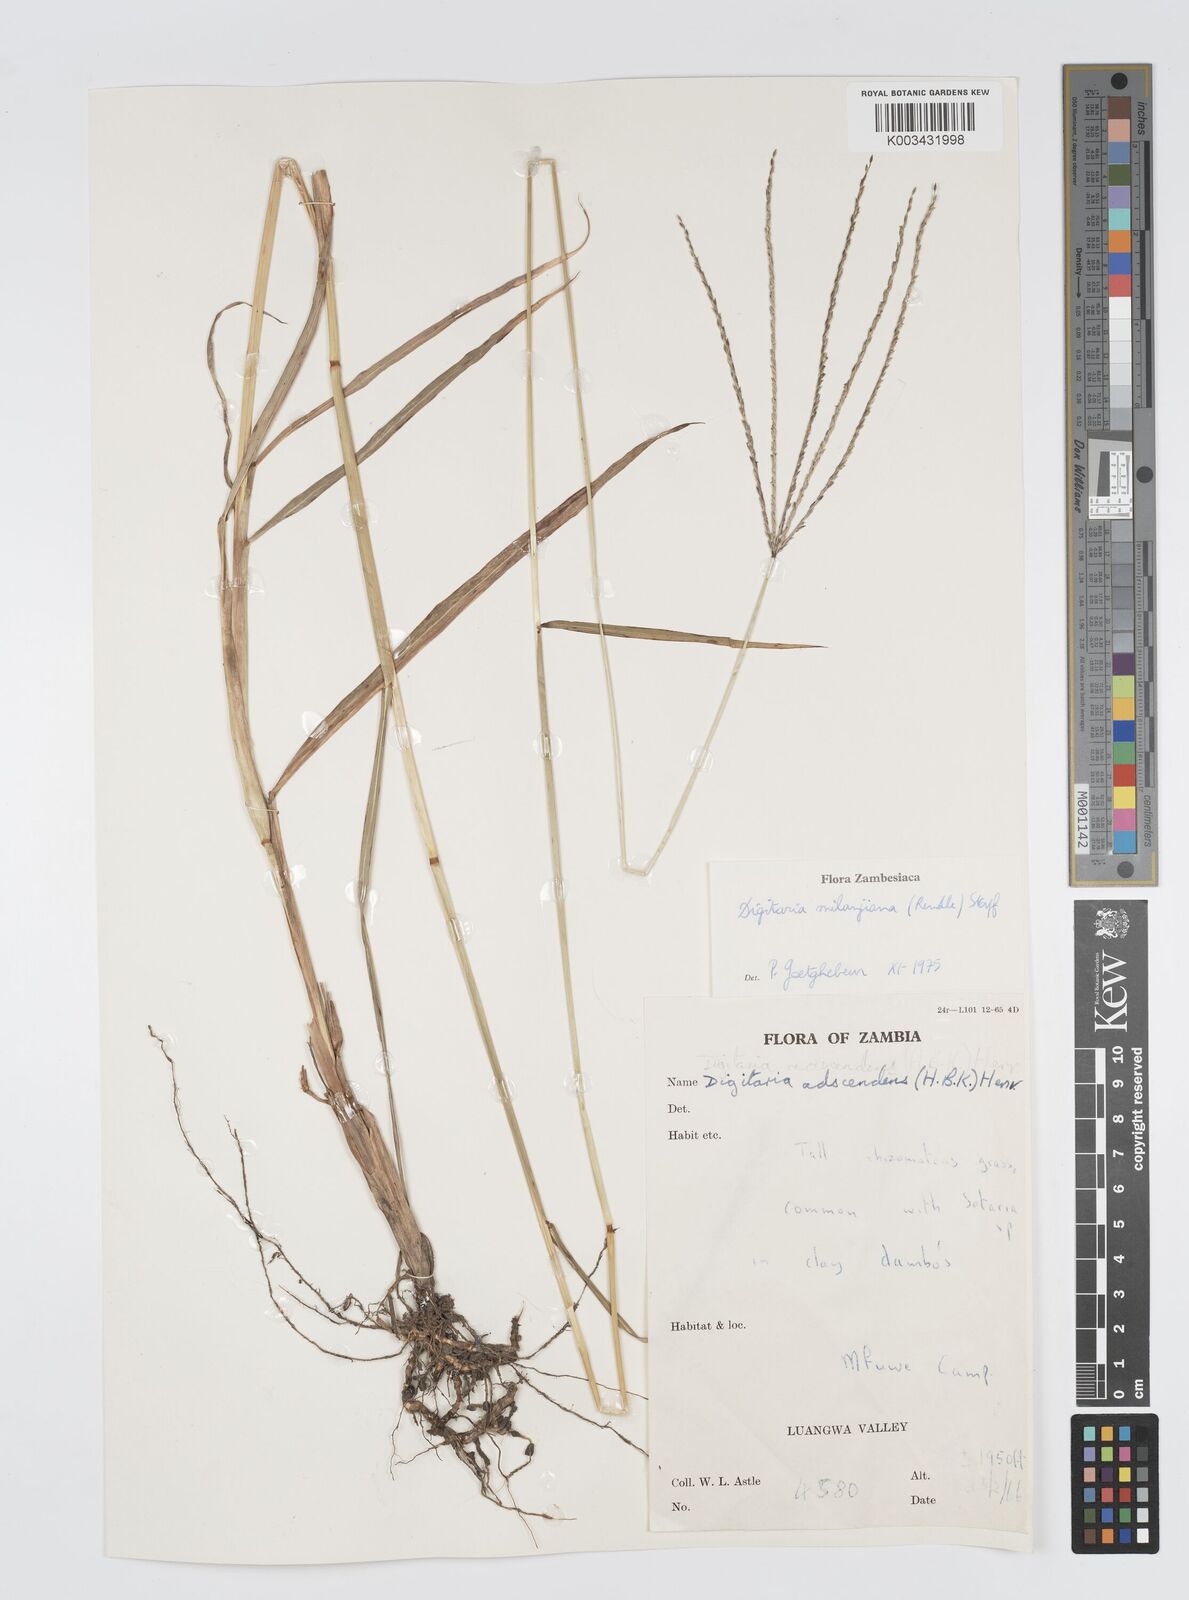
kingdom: Plantae
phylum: Tracheophyta
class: Liliopsida
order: Poales
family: Poaceae
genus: Digitaria
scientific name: Digitaria milanjiana
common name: Madagascar crabgrass
